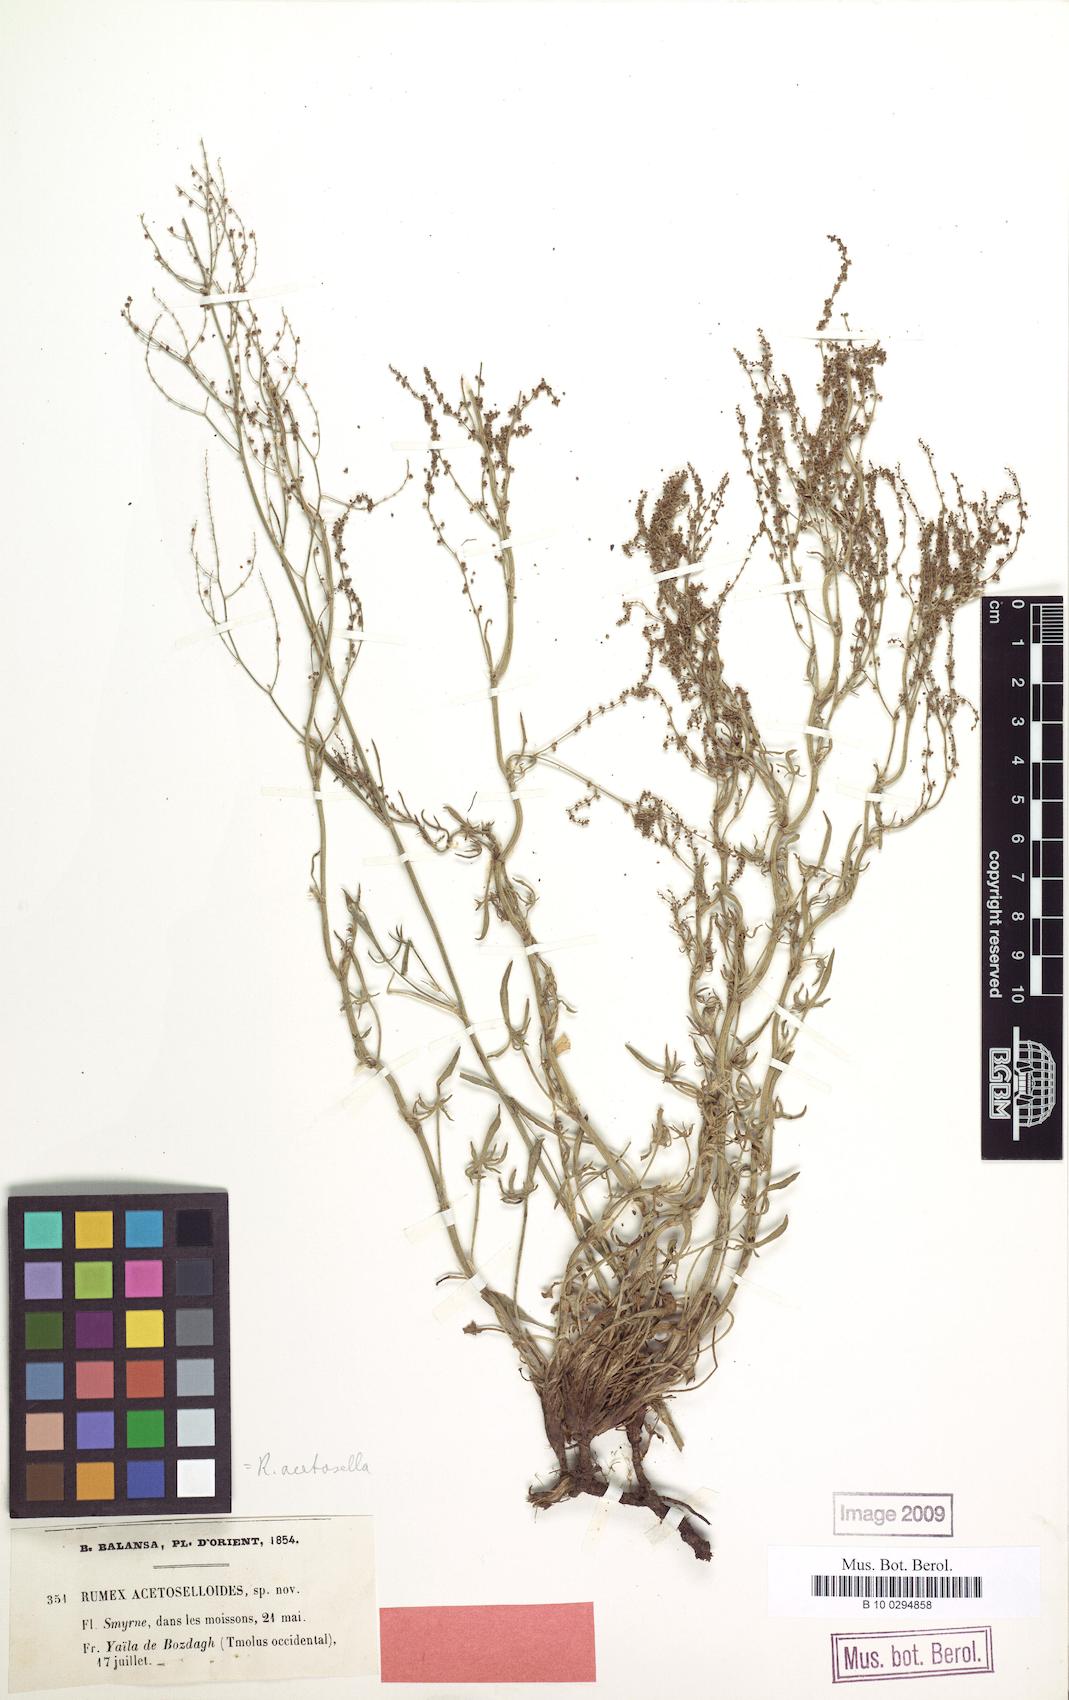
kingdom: Plantae
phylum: Tracheophyta
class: Magnoliopsida
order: Caryophyllales
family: Polygonaceae
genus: Rumex
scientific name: Rumex acetosella
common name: Common sheep sorrel
